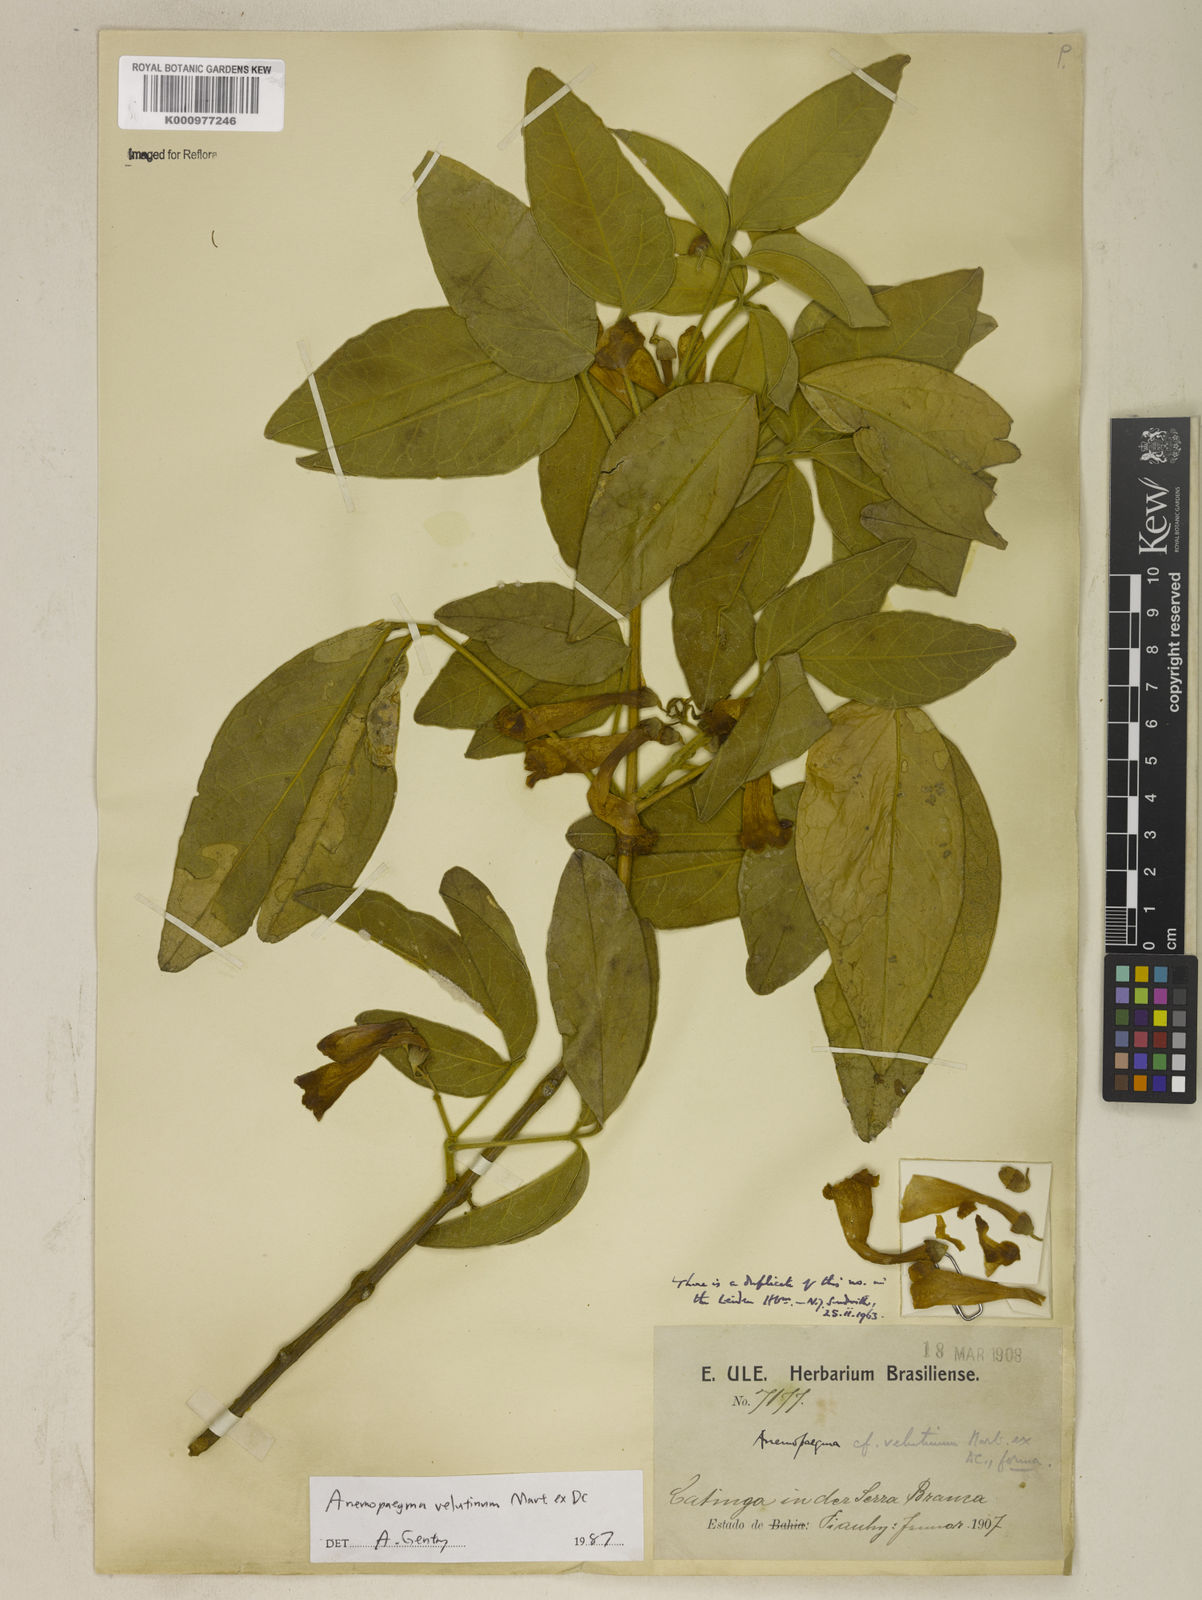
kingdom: Plantae
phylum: Tracheophyta
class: Magnoliopsida
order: Lamiales
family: Bignoniaceae
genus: Anemopaegma
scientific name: Anemopaegma velutinum
